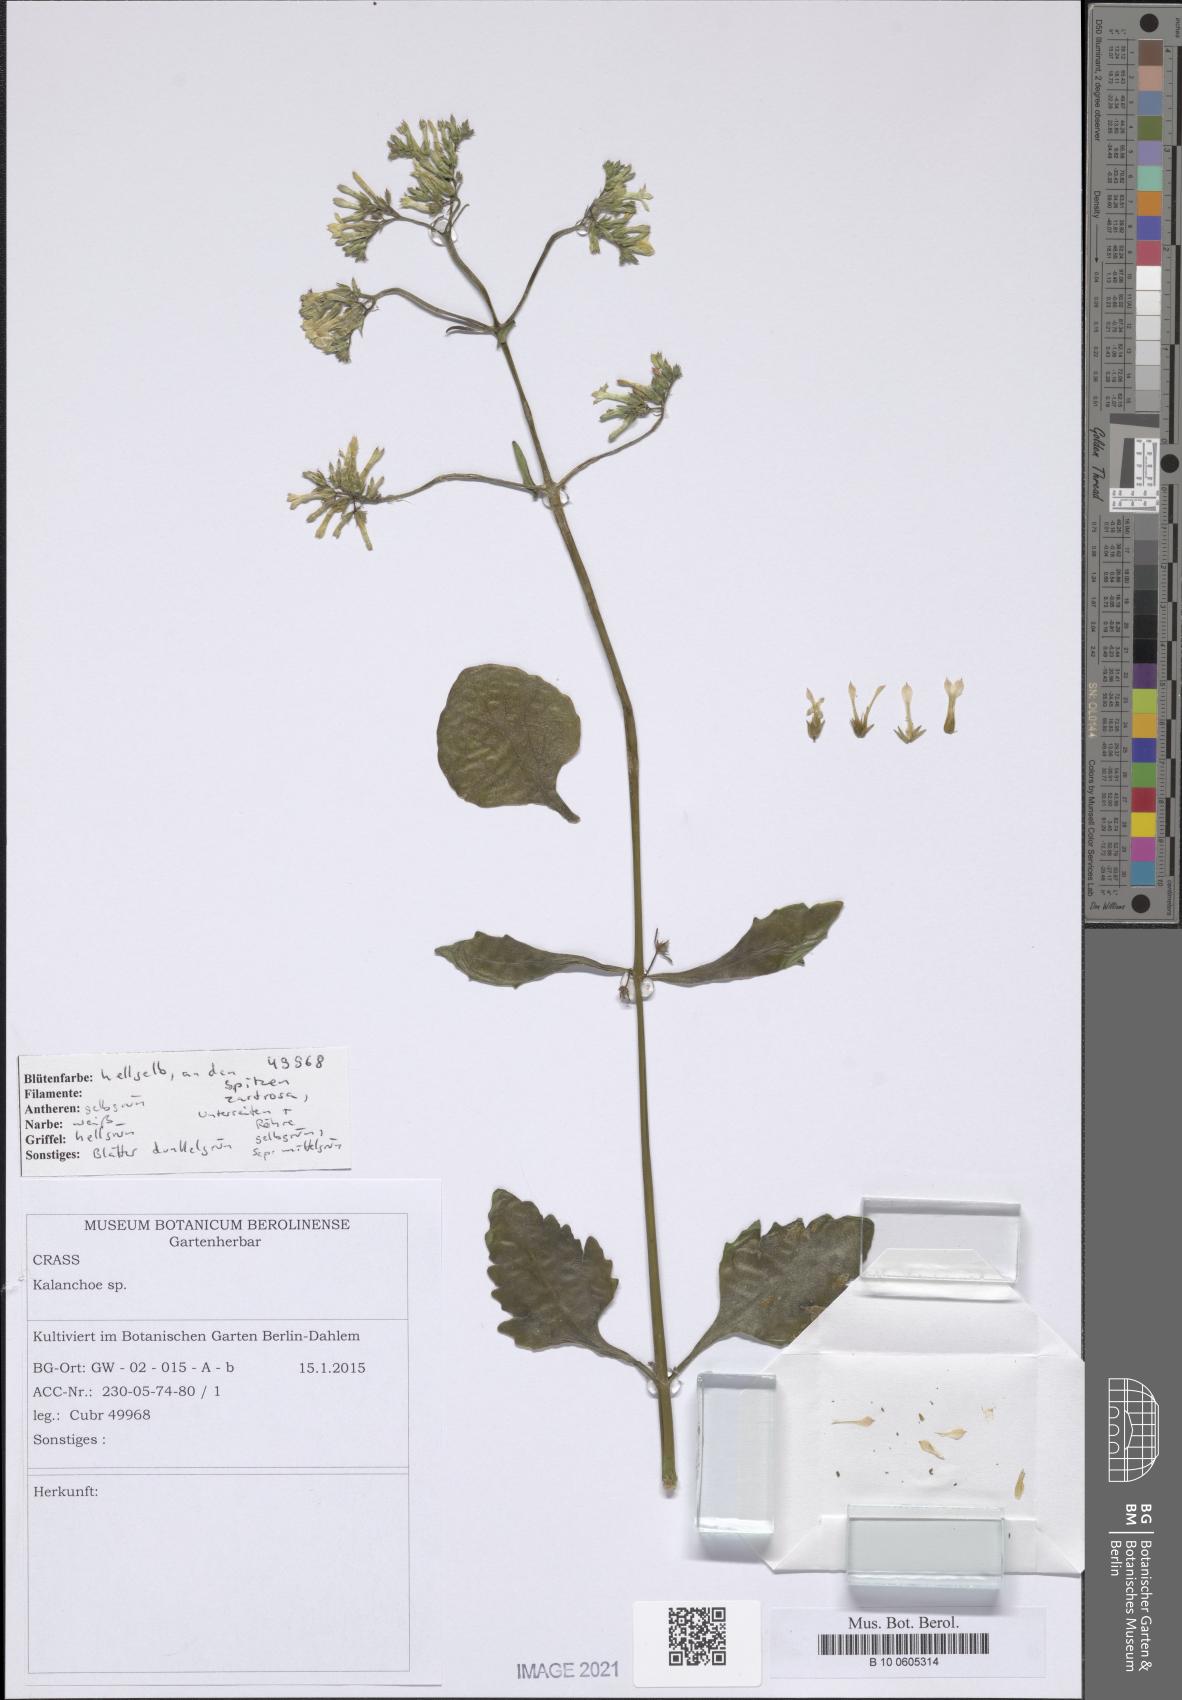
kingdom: Plantae
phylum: Tracheophyta
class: Magnoliopsida
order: Saxifragales
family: Crassulaceae
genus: Kalanchoe
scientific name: Kalanchoe
